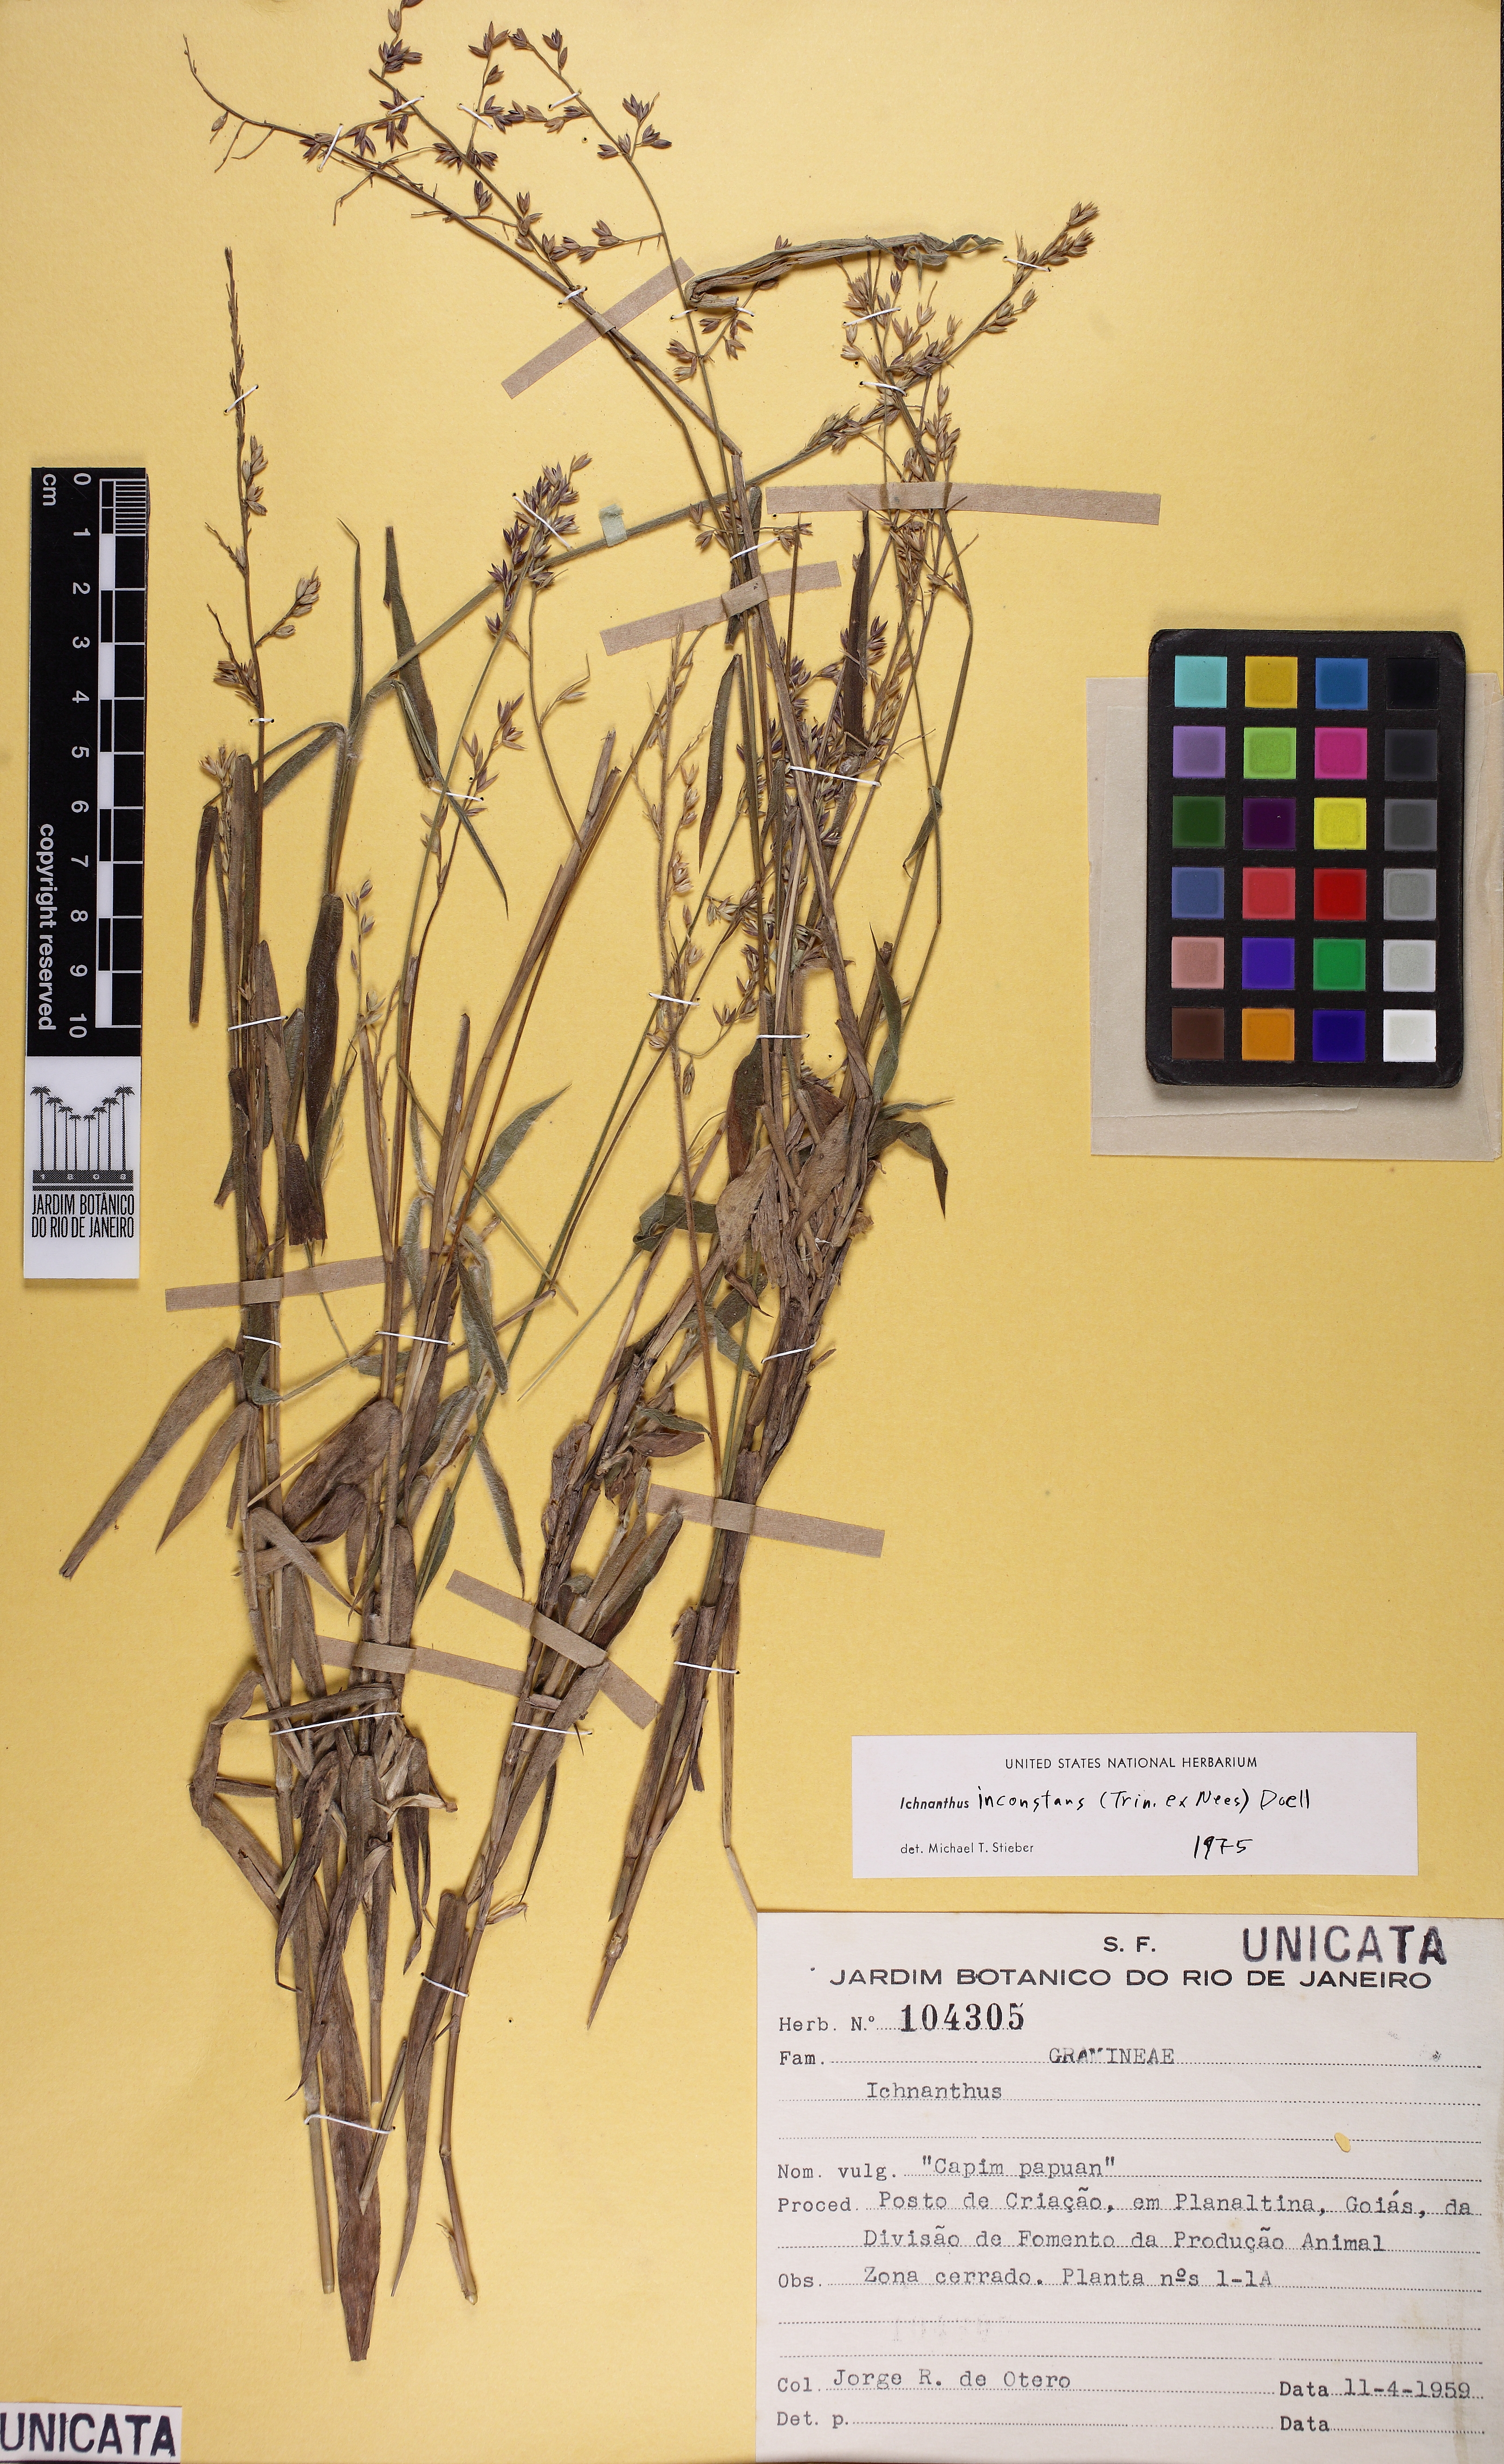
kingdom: Plantae
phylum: Tracheophyta
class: Liliopsida
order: Poales
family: Poaceae
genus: Ichnanthus
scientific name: Ichnanthus inconstans
